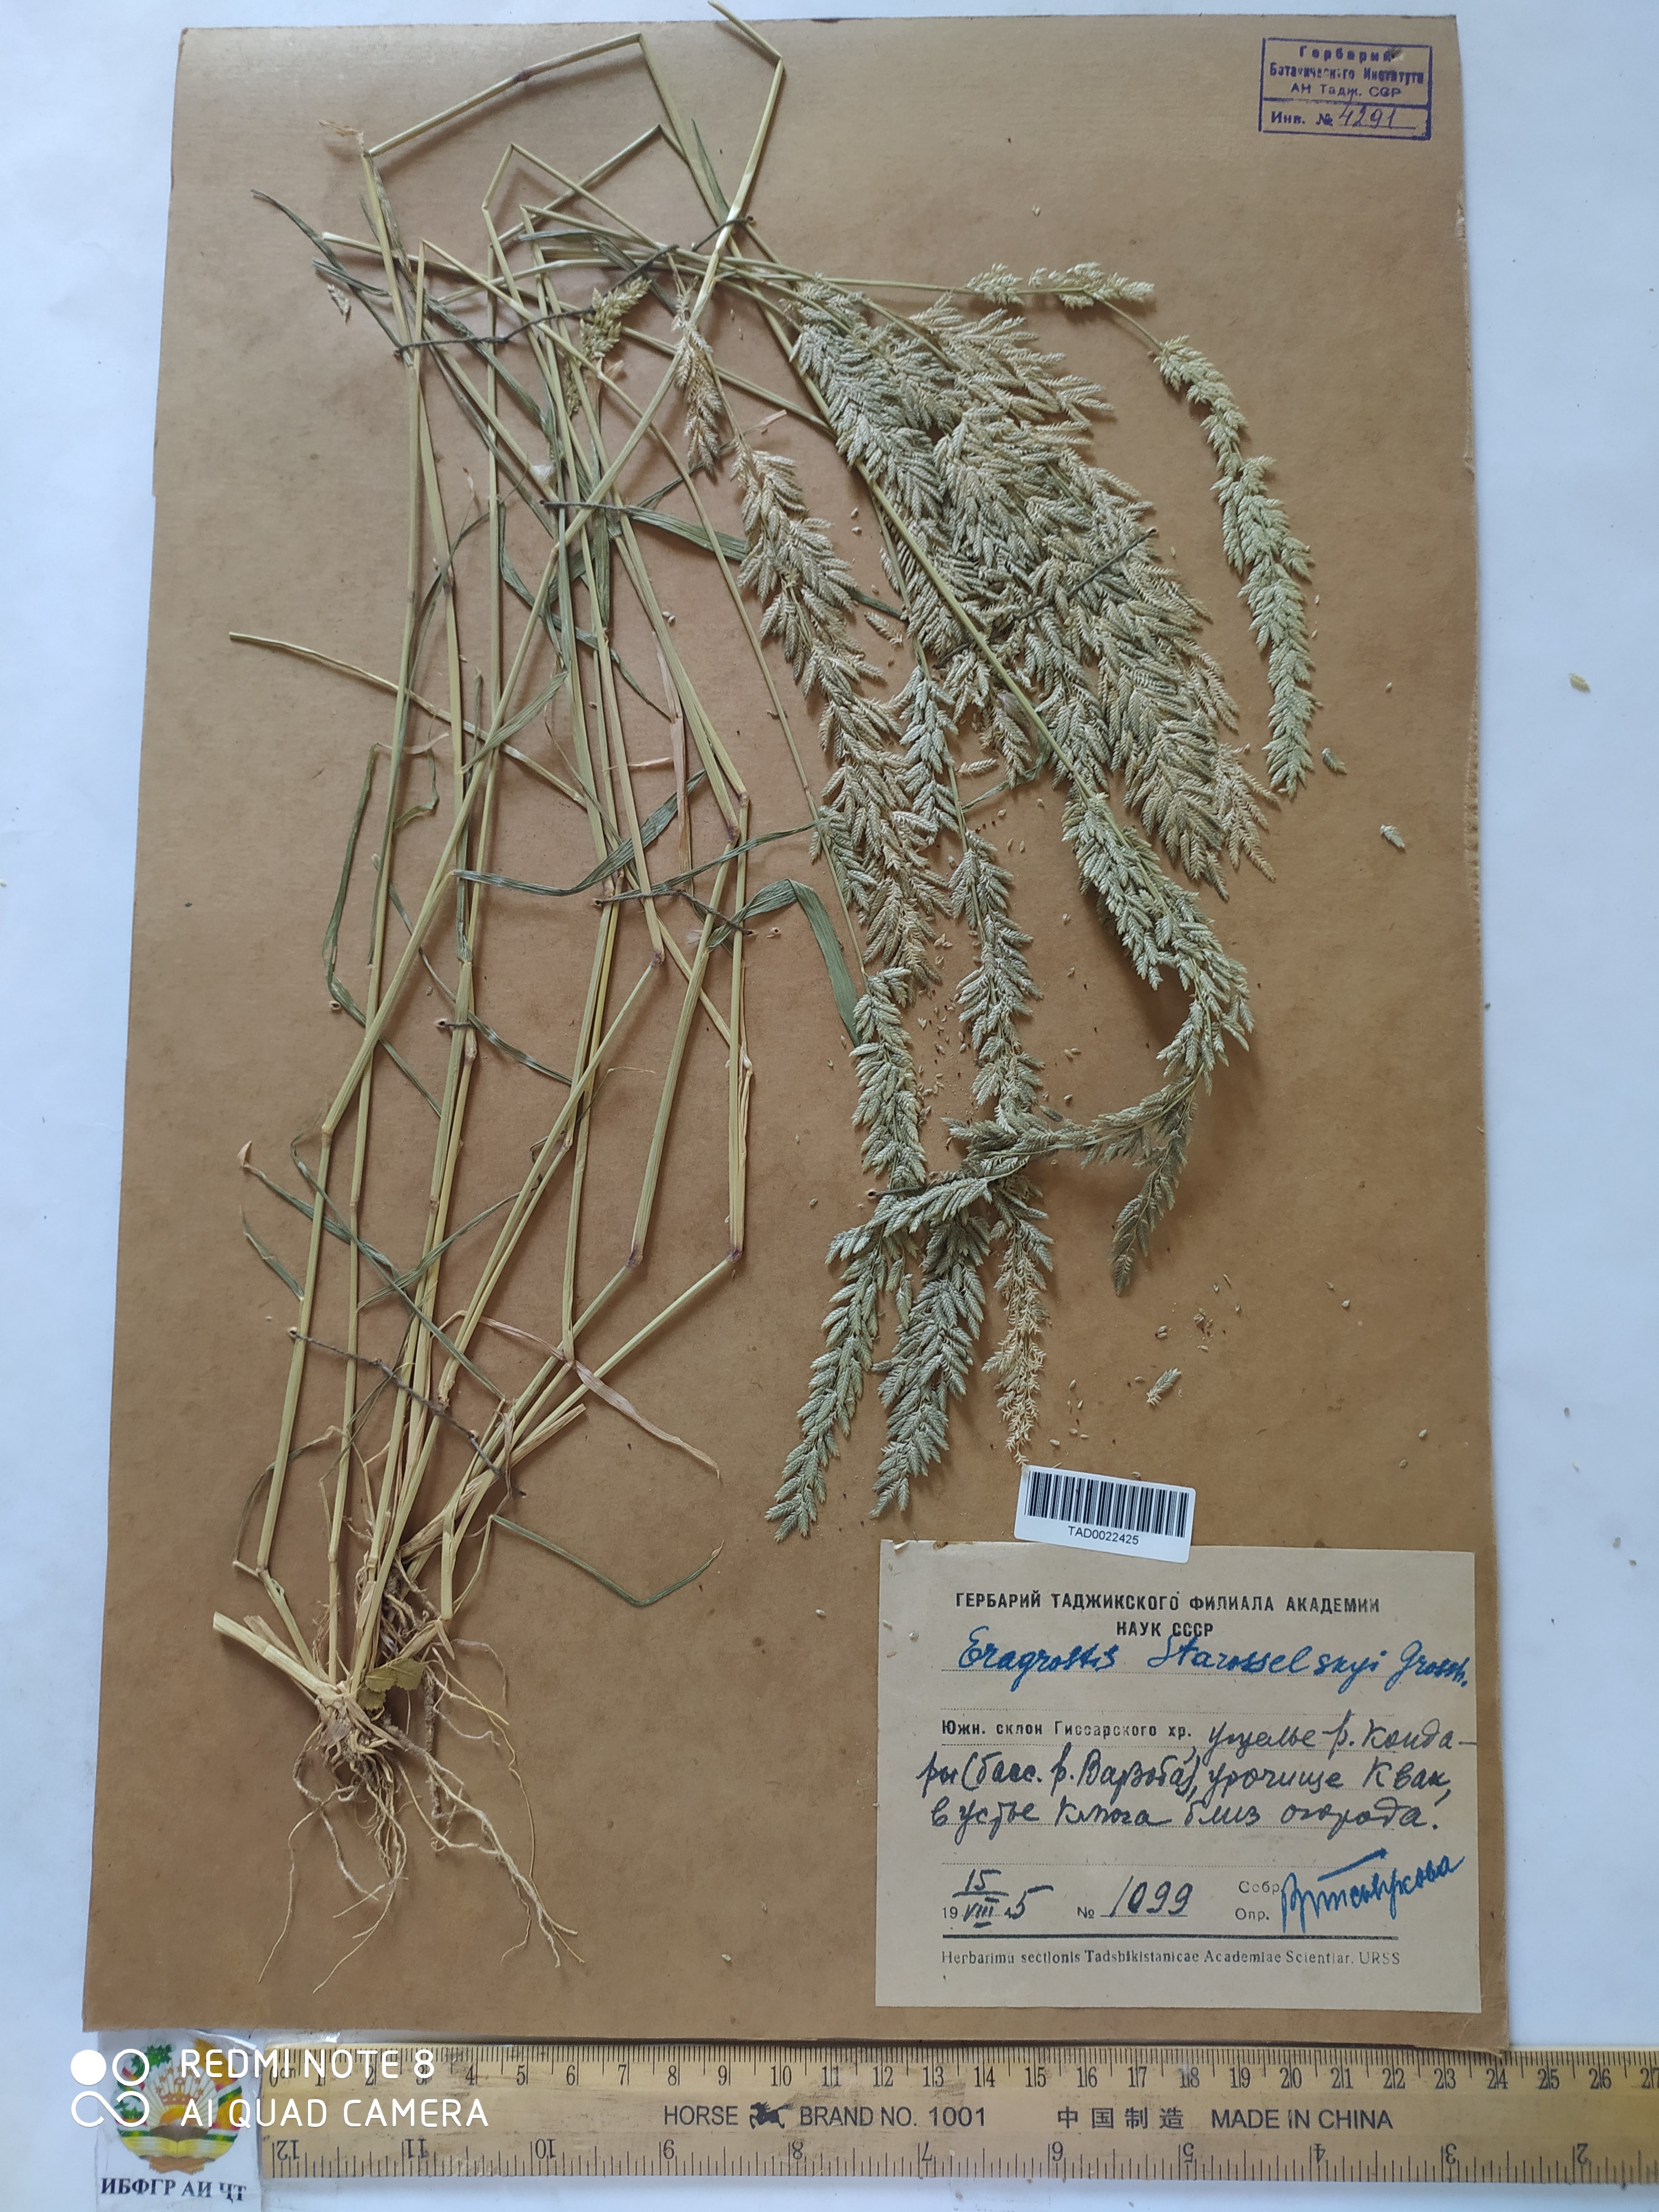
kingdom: Plantae
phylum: Tracheophyta
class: Liliopsida
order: Poales
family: Poaceae
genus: Eragrostis
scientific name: Eragrostis cilianensis
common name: Stinkgrass
